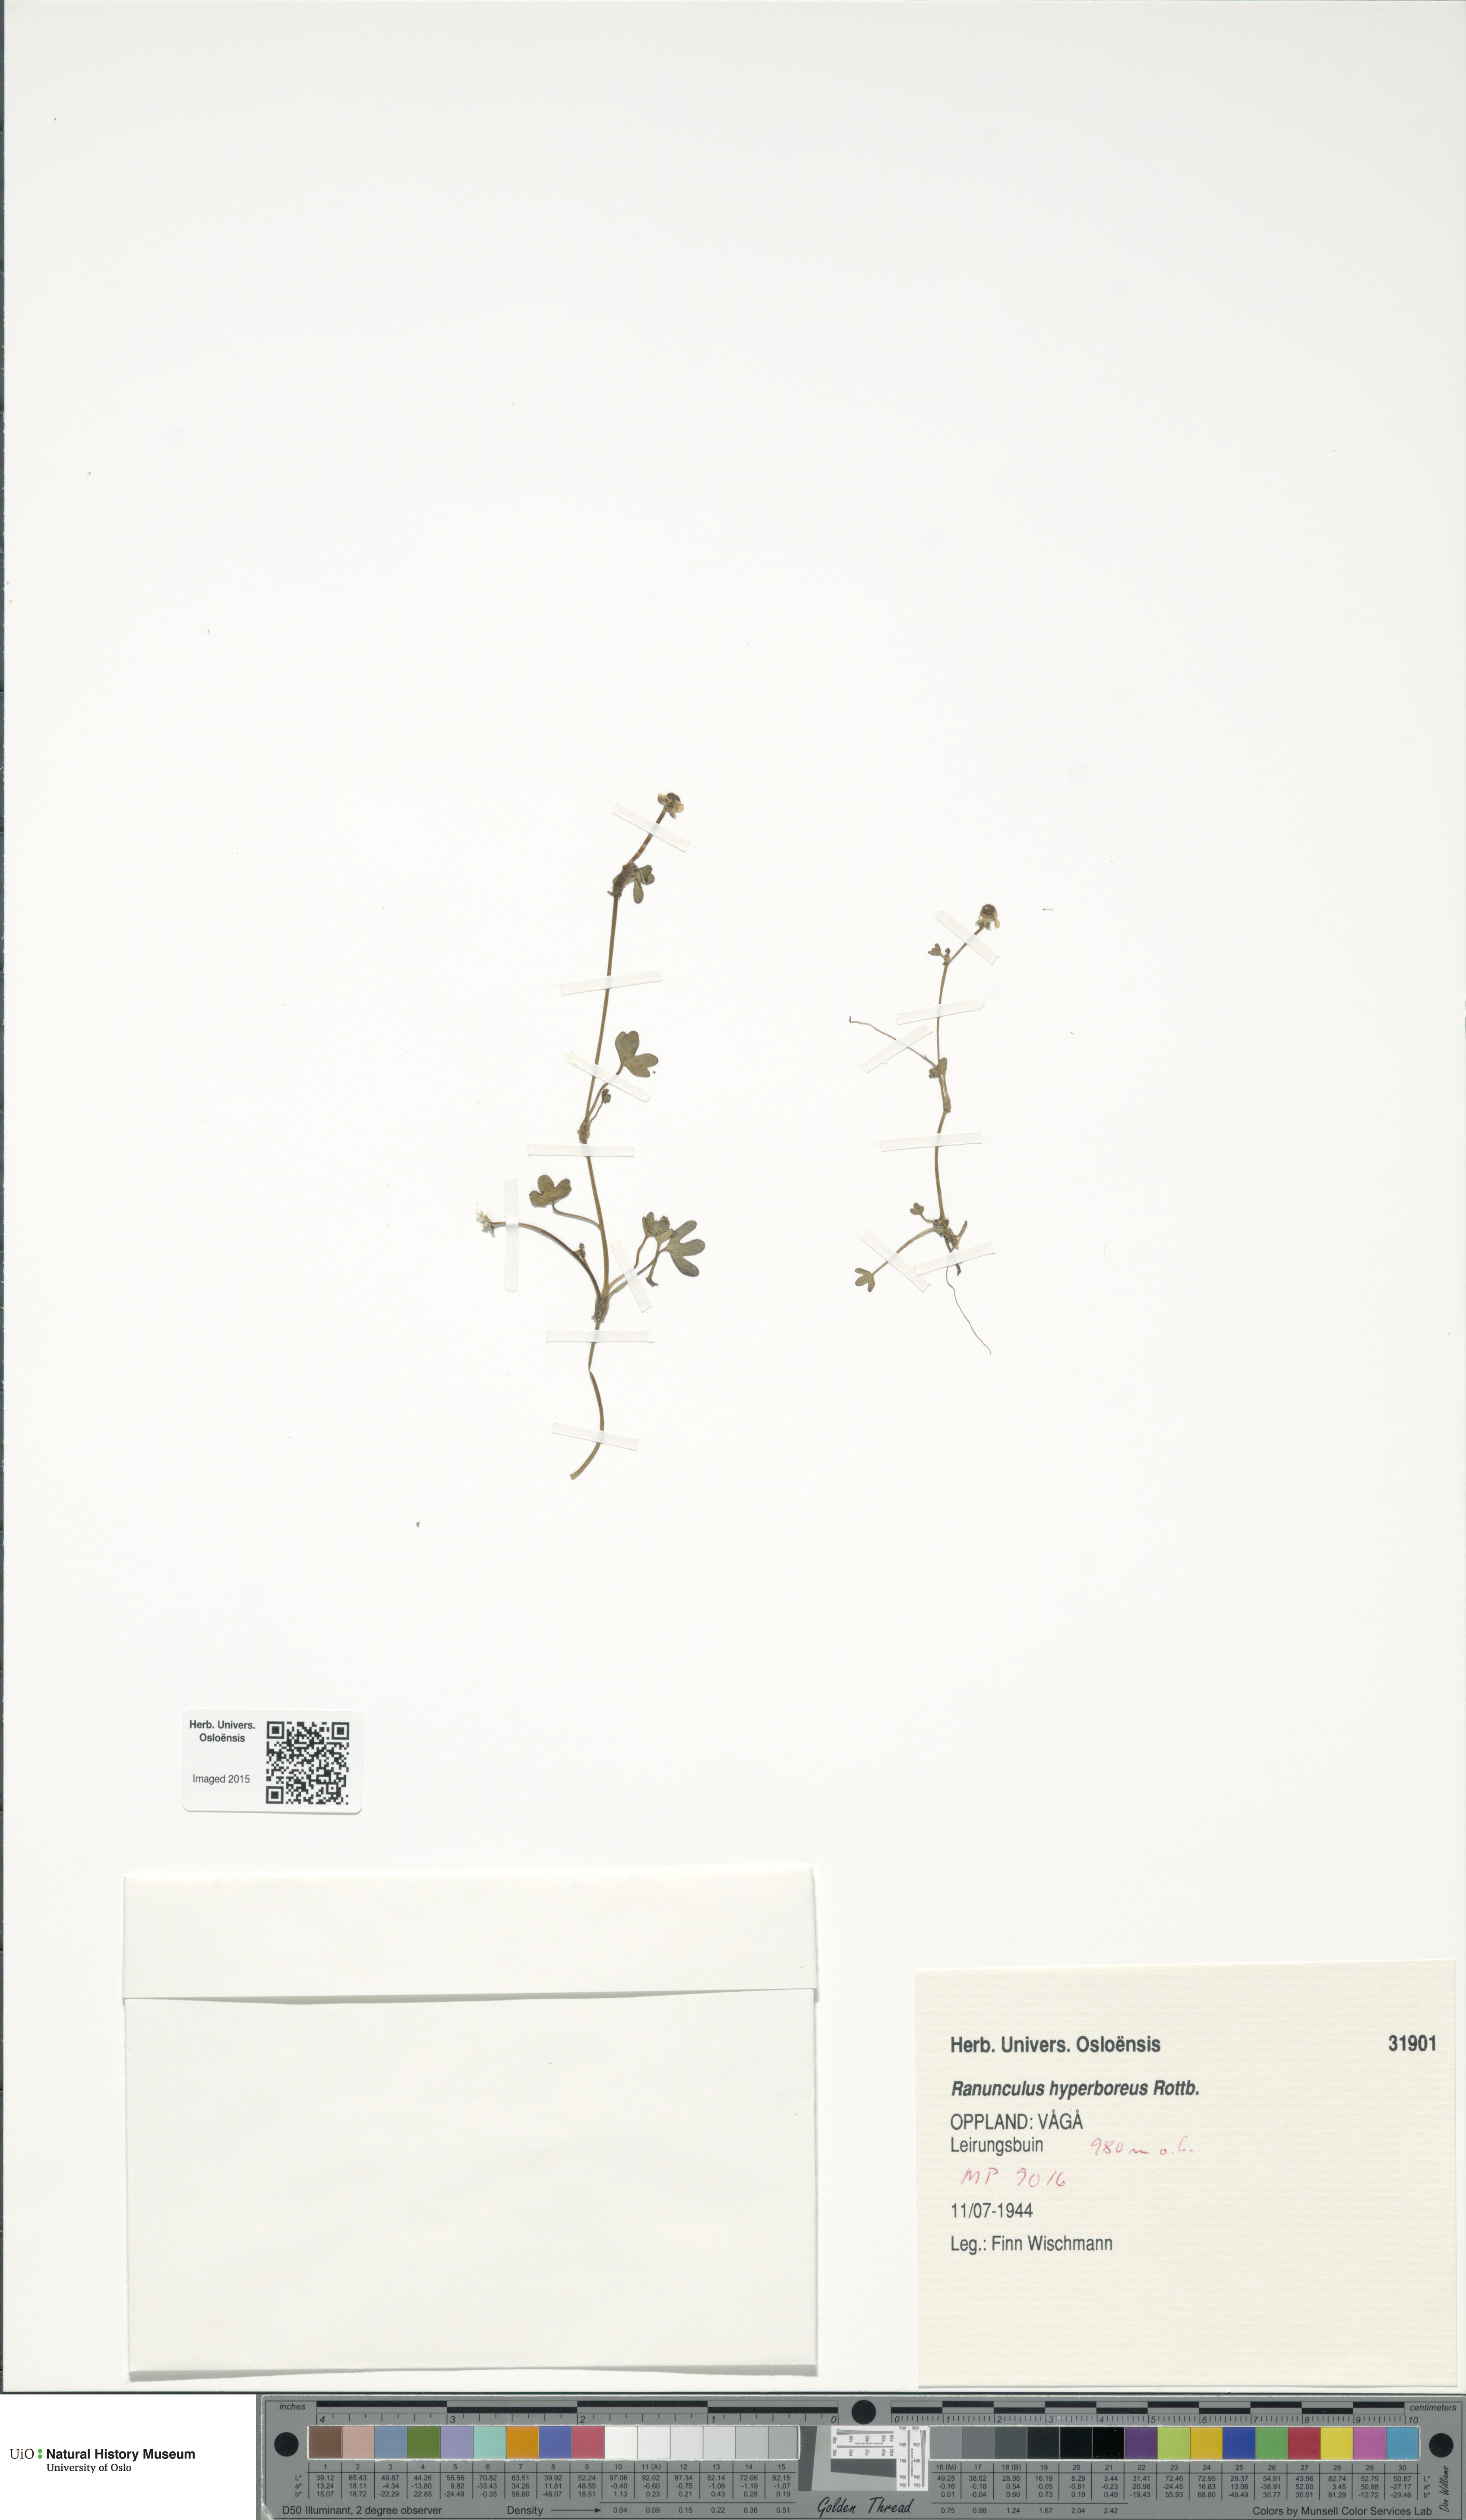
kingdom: Plantae
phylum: Tracheophyta
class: Magnoliopsida
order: Ranunculales
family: Ranunculaceae
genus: Ranunculus
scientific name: Ranunculus hyperboreus
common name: Arctic buttercup
